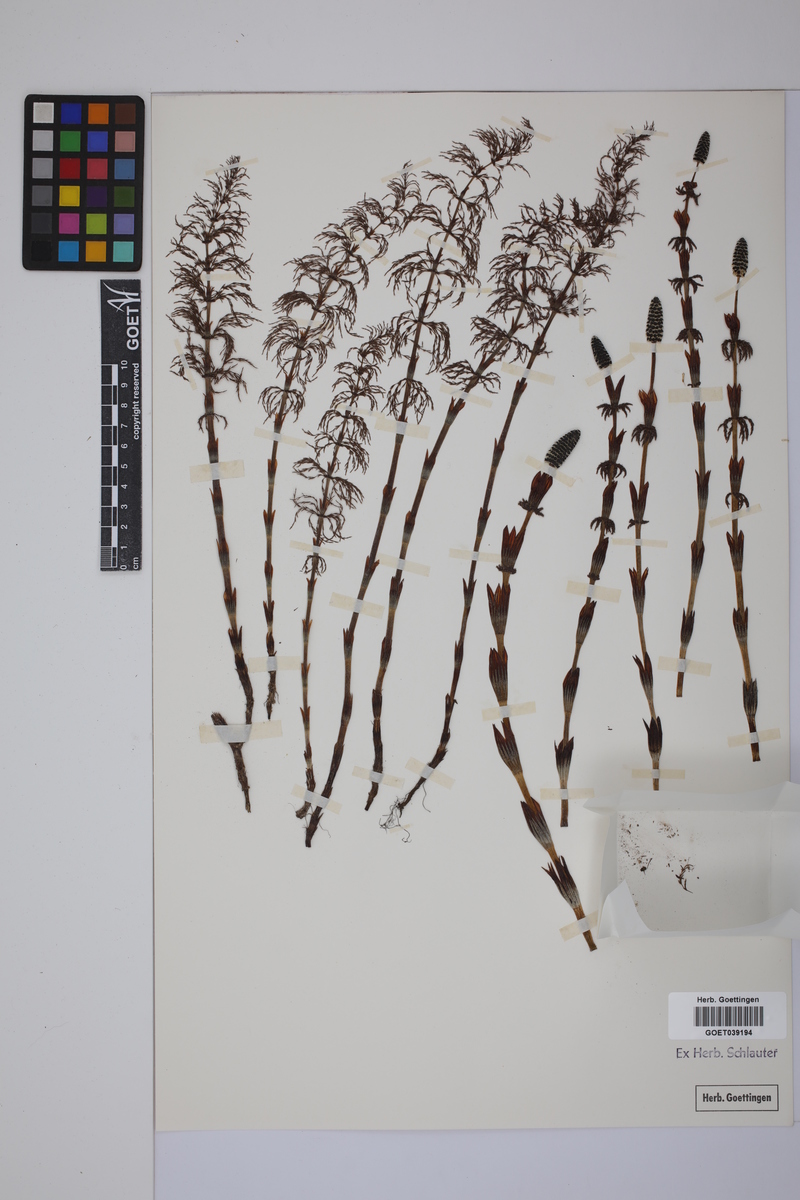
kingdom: Plantae
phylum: Tracheophyta
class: Polypodiopsida
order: Equisetales
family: Equisetaceae
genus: Equisetum
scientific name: Equisetum sylvaticum
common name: Wood horsetail
